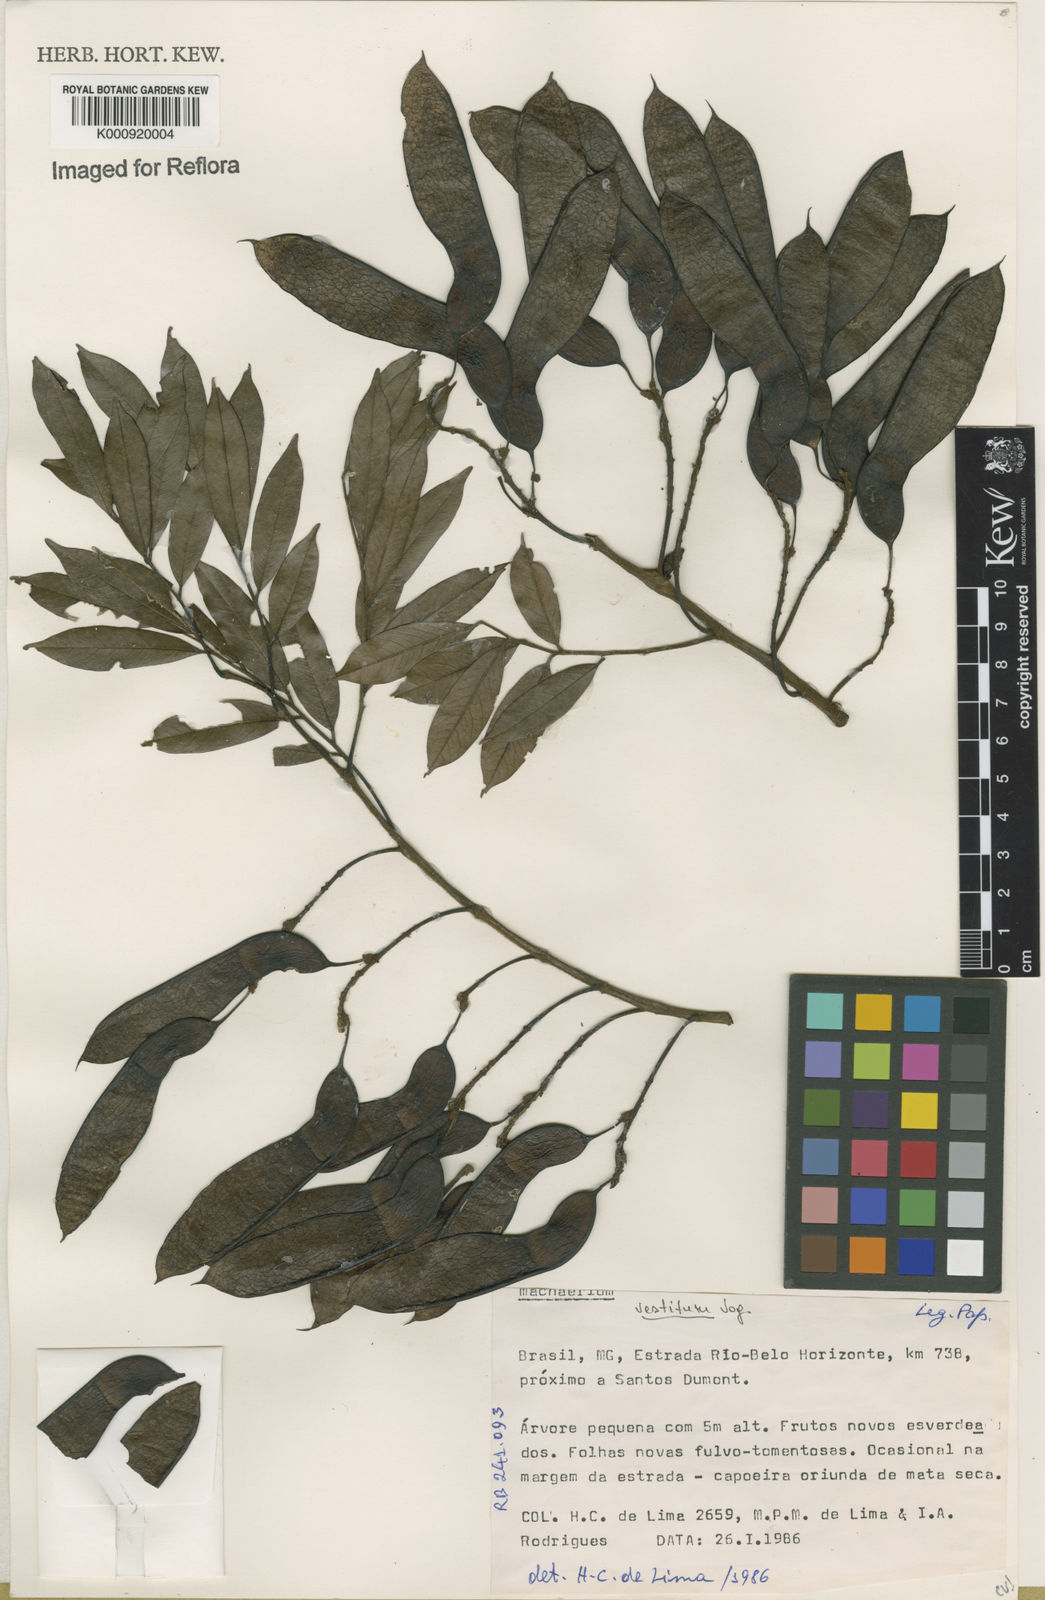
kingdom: Plantae
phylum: Tracheophyta
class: Magnoliopsida
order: Fabales
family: Fabaceae
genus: Machaerium
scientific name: Machaerium brasiliense
